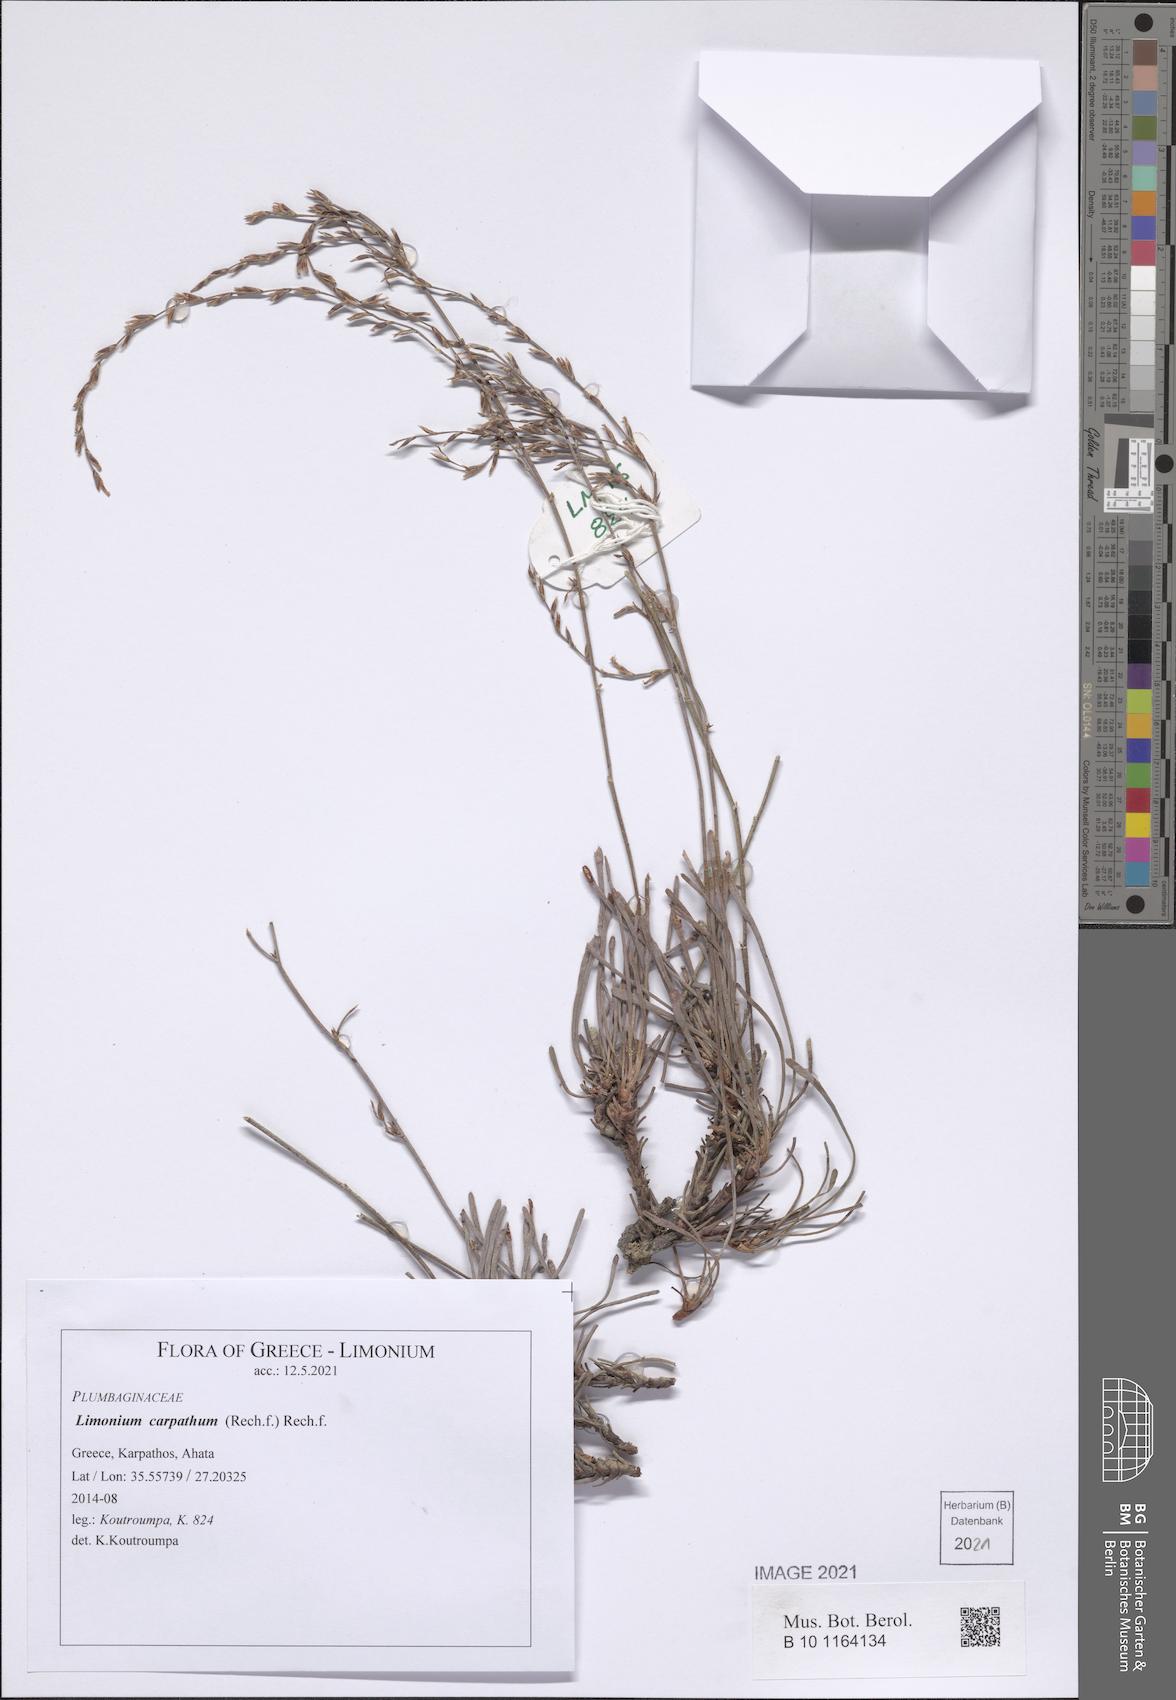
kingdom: Plantae
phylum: Tracheophyta
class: Magnoliopsida
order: Caryophyllales
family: Plumbaginaceae
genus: Limonium
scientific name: Limonium carpathum
